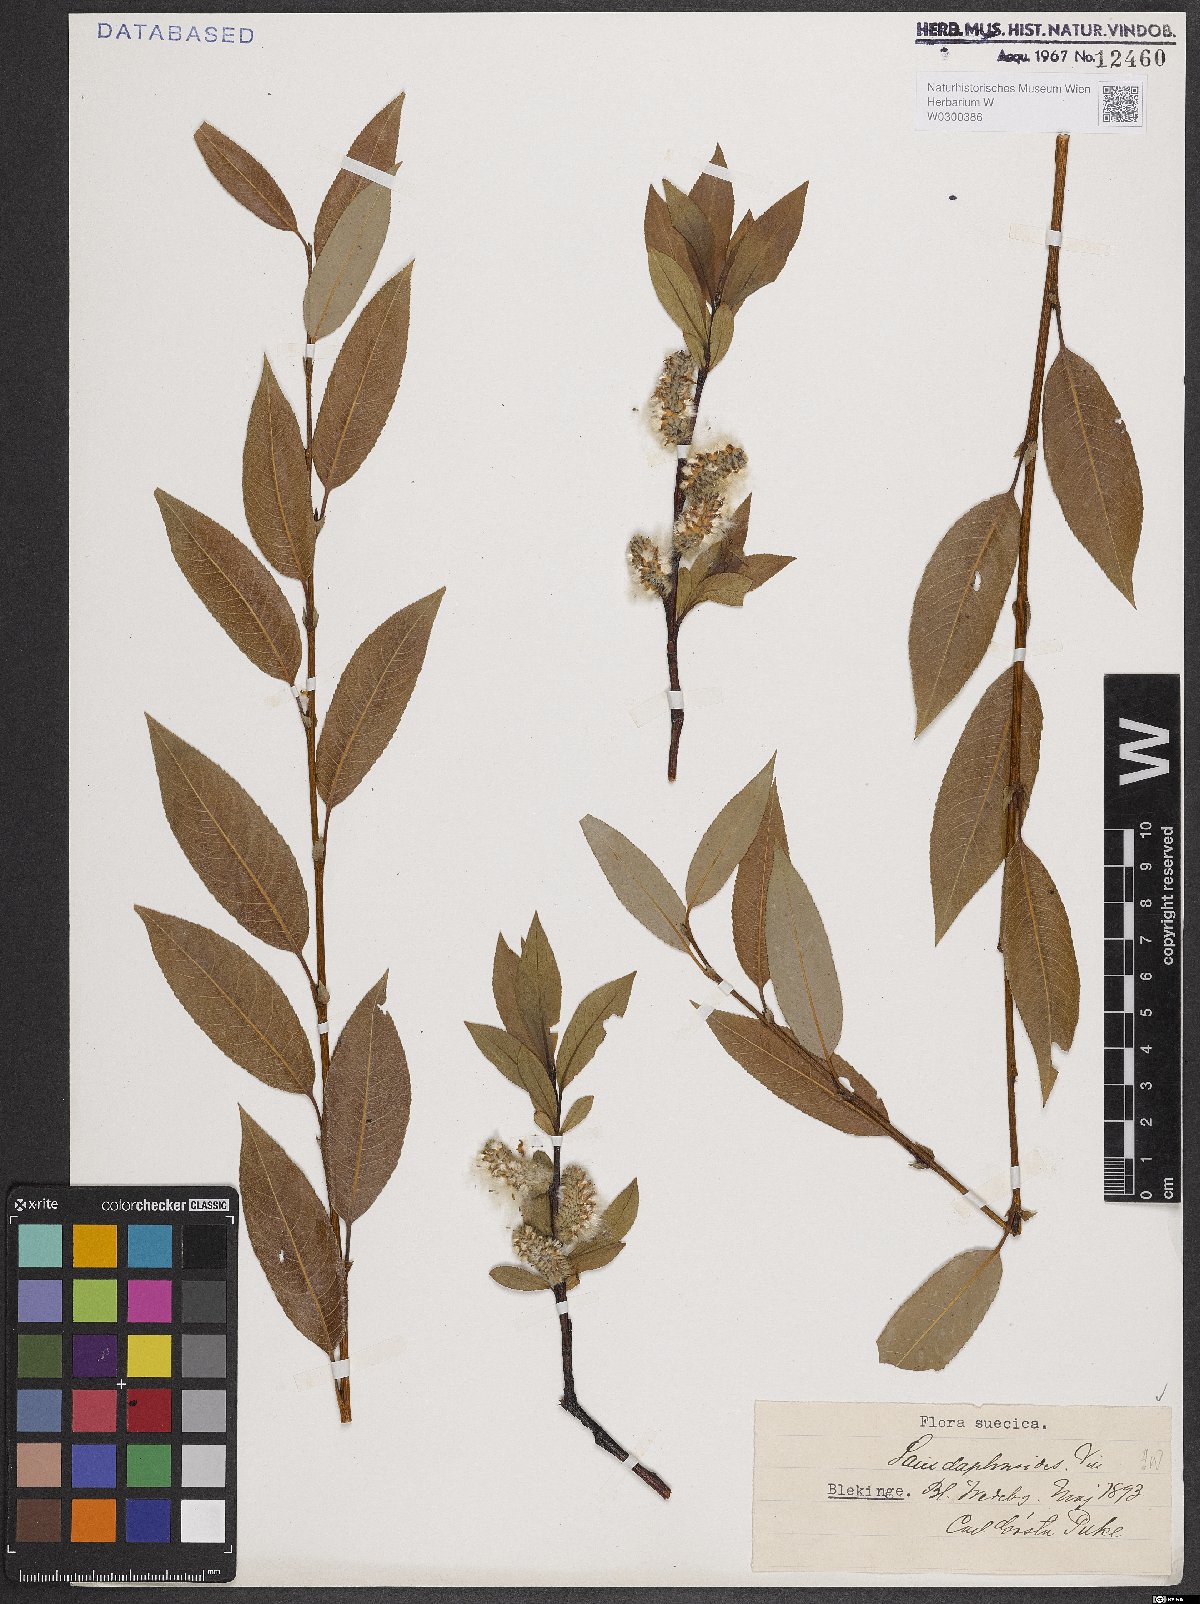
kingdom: Plantae
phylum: Tracheophyta
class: Magnoliopsida
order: Malpighiales
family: Salicaceae
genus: Salix
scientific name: Salix daphnoides
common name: European violet-willow
